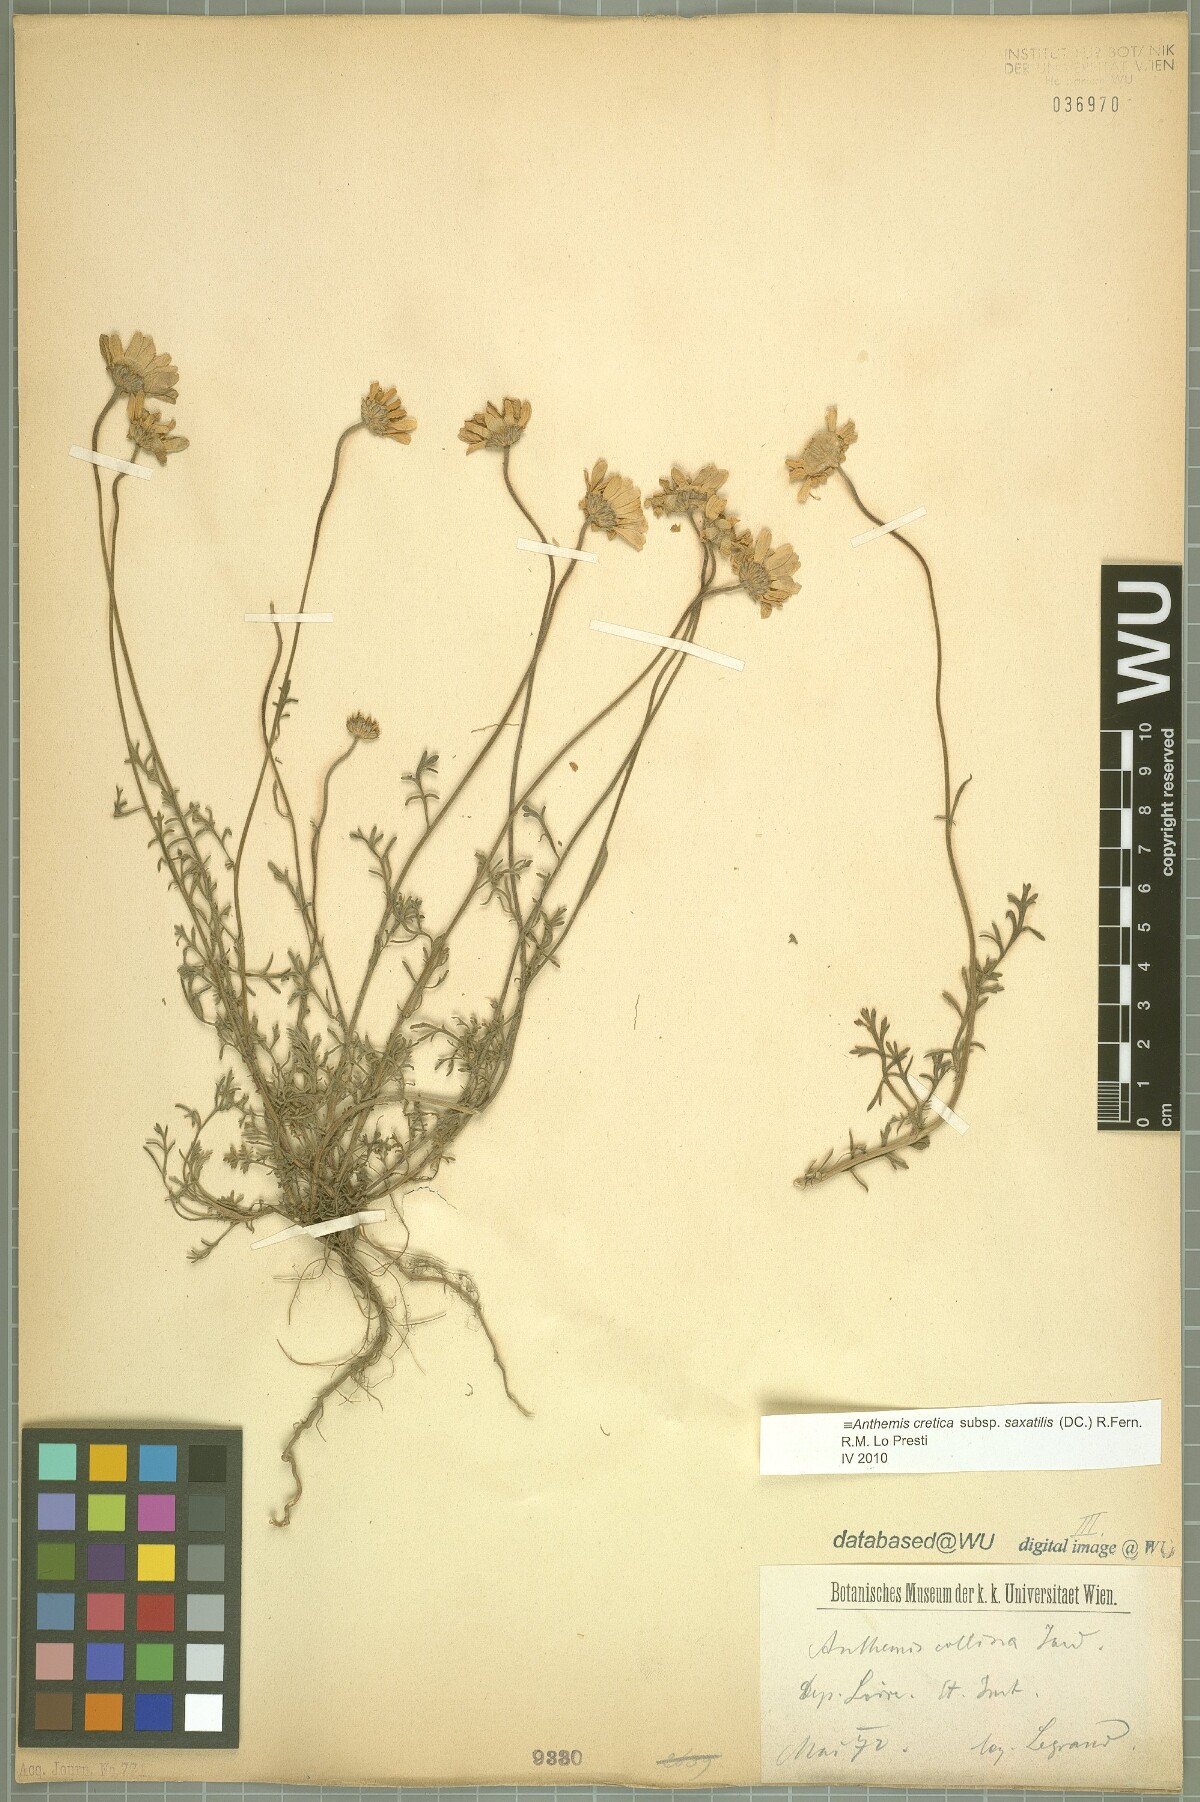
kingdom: Plantae
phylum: Tracheophyta
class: Magnoliopsida
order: Asterales
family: Asteraceae
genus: Anthemis
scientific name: Anthemis cretica
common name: Mountain dog-daisy
